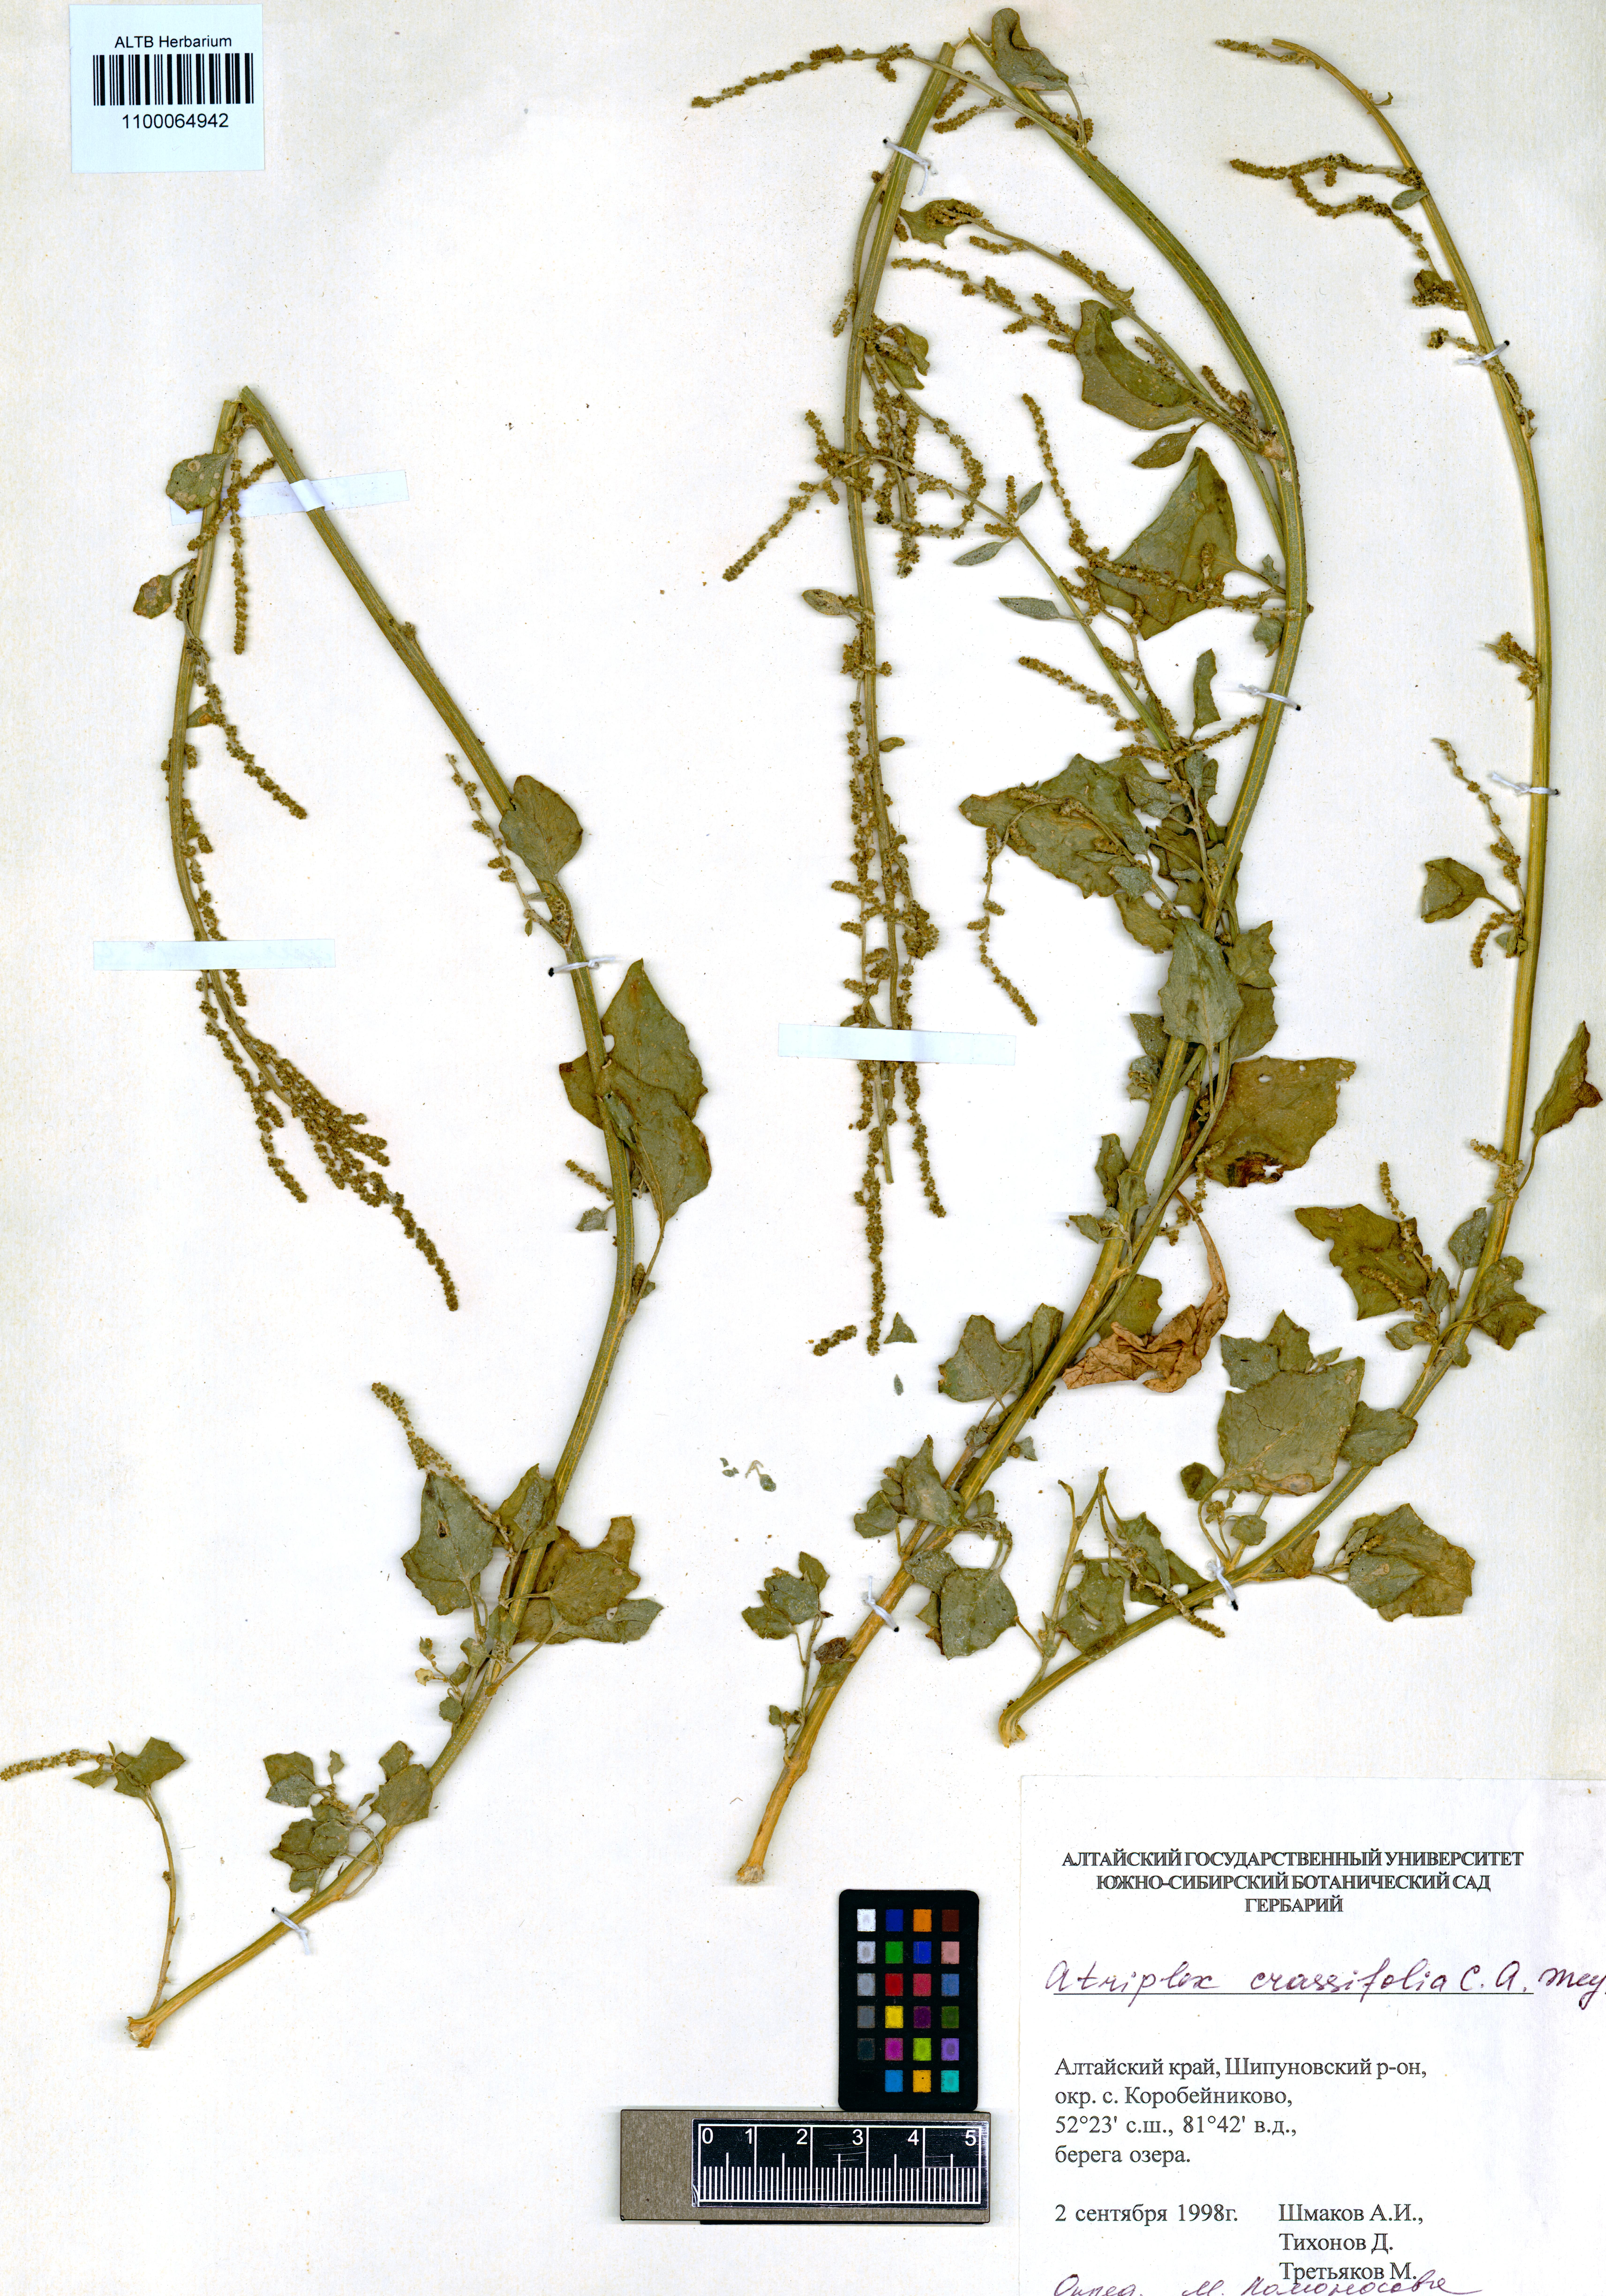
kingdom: Plantae
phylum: Tracheophyta
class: Magnoliopsida
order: Caryophyllales
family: Amaranthaceae
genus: Atriplex
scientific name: Atriplex crassifolia
